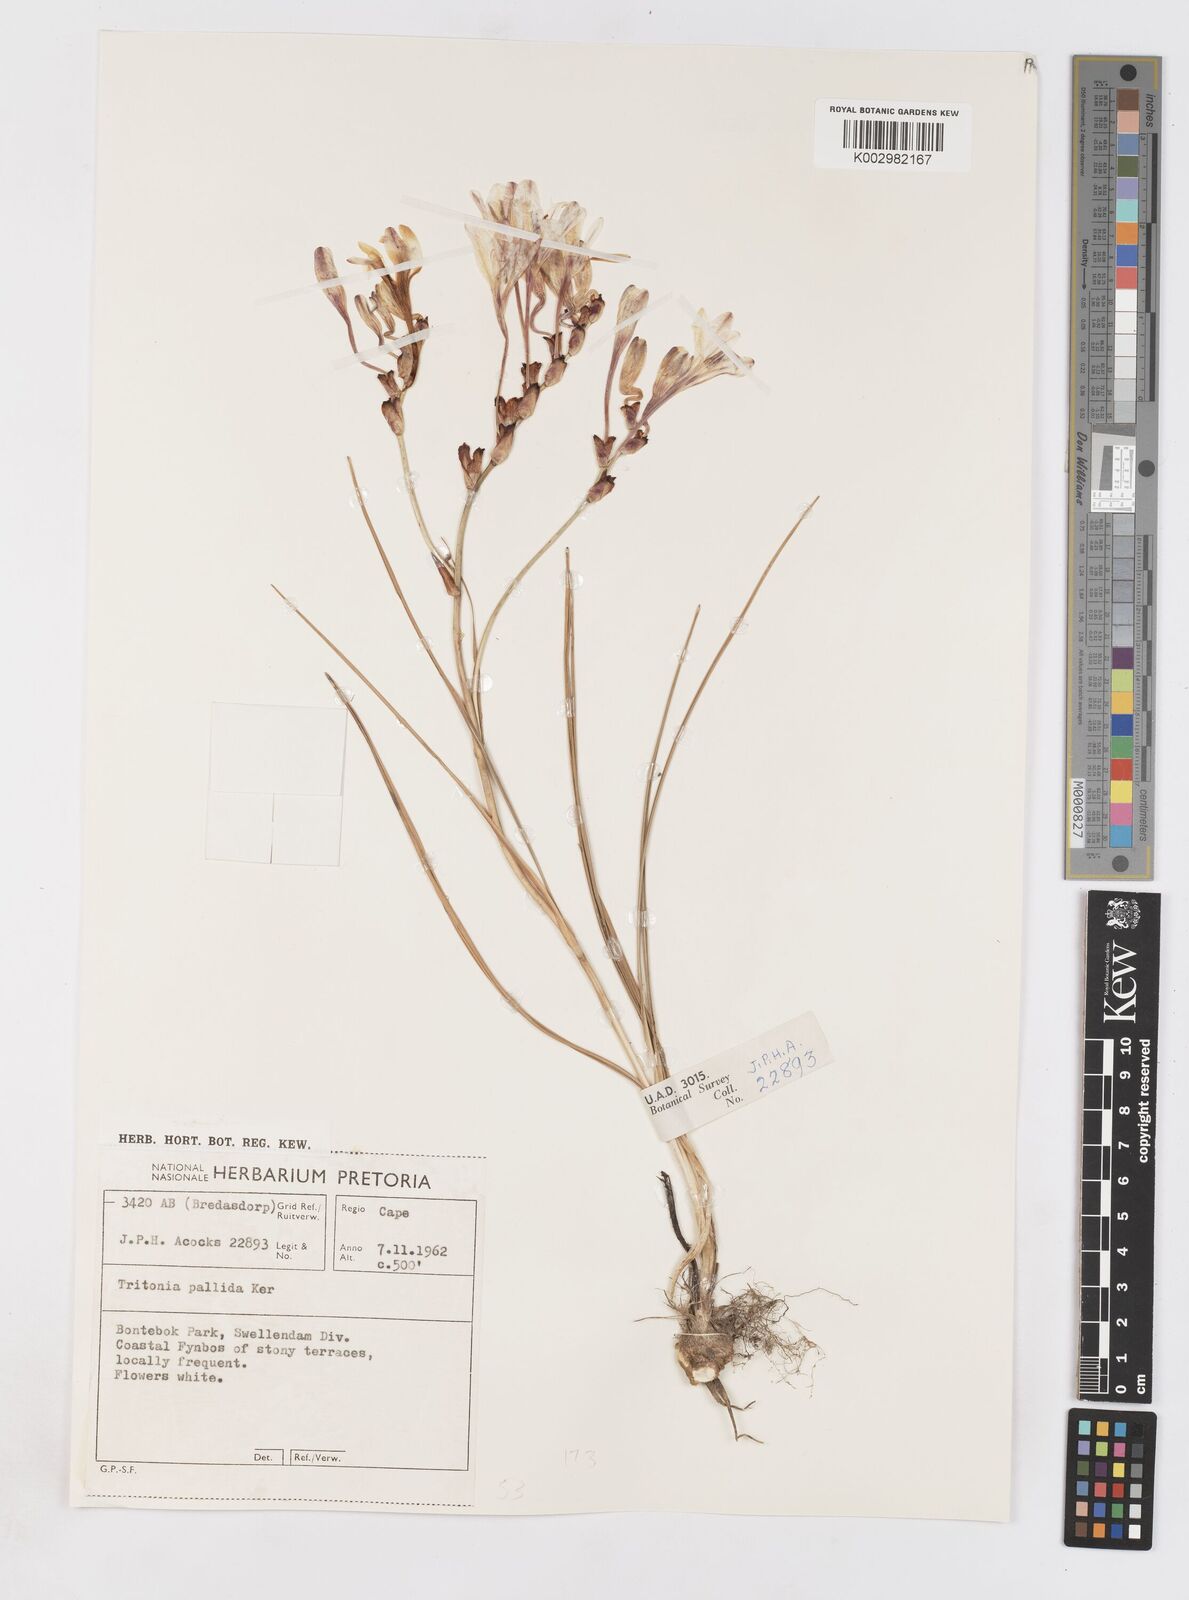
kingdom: Plantae
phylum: Tracheophyta
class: Liliopsida
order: Asparagales
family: Iridaceae
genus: Tritonia
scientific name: Tritonia undulata
